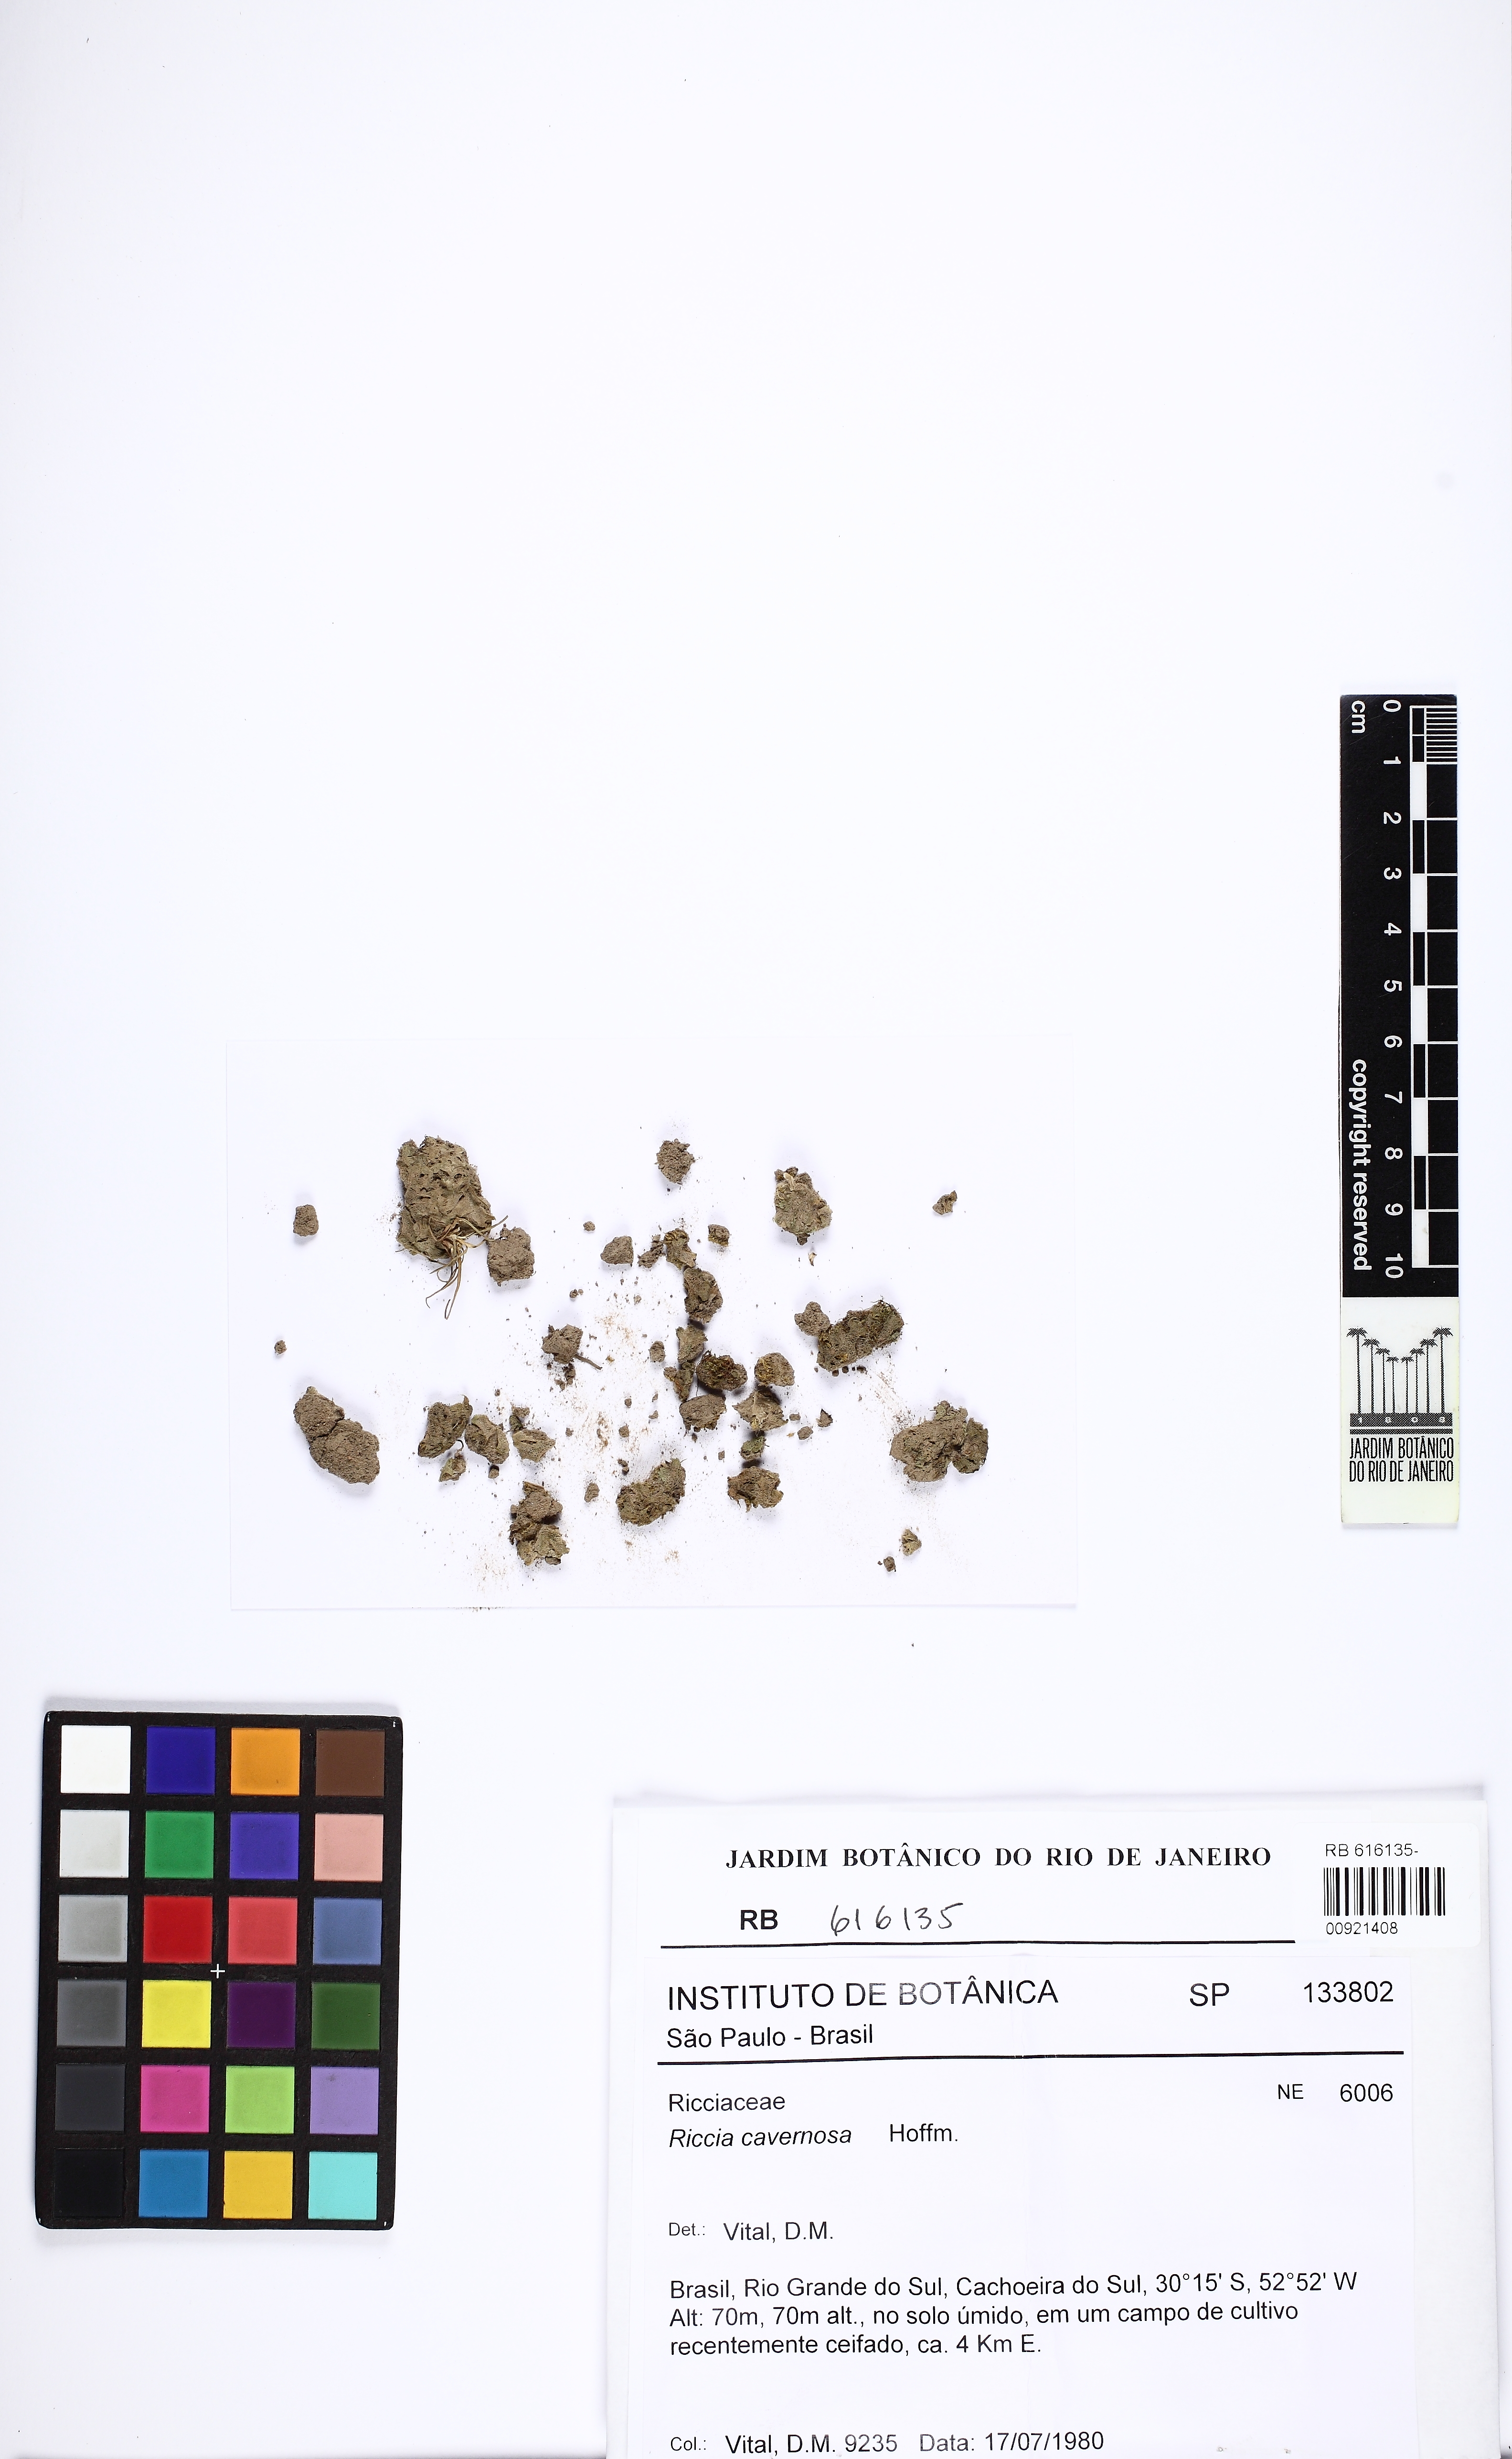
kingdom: Plantae
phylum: Marchantiophyta
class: Marchantiopsida
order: Marchantiales
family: Ricciaceae
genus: Riccia
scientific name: Riccia cavernosa
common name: Cavernous crystalwort
